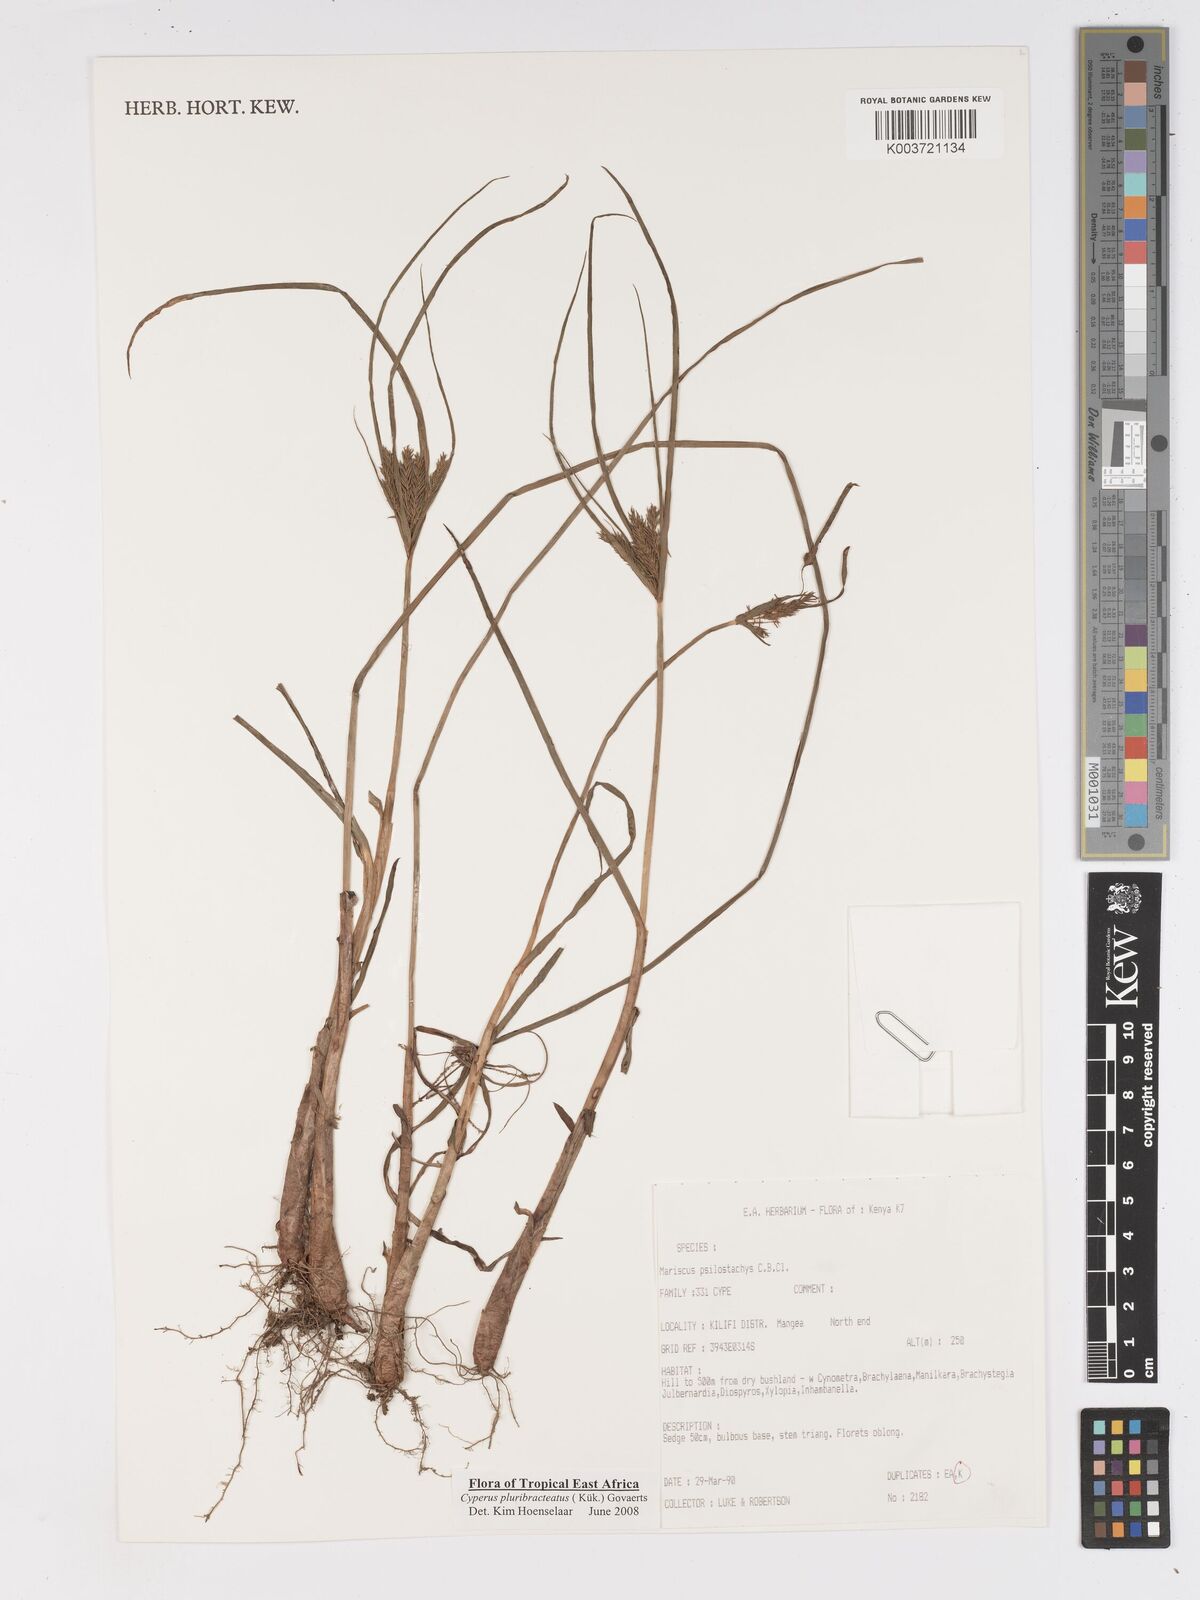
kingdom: Plantae
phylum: Tracheophyta
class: Liliopsida
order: Poales
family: Cyperaceae
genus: Cyperus
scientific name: Cyperus trigonellus
